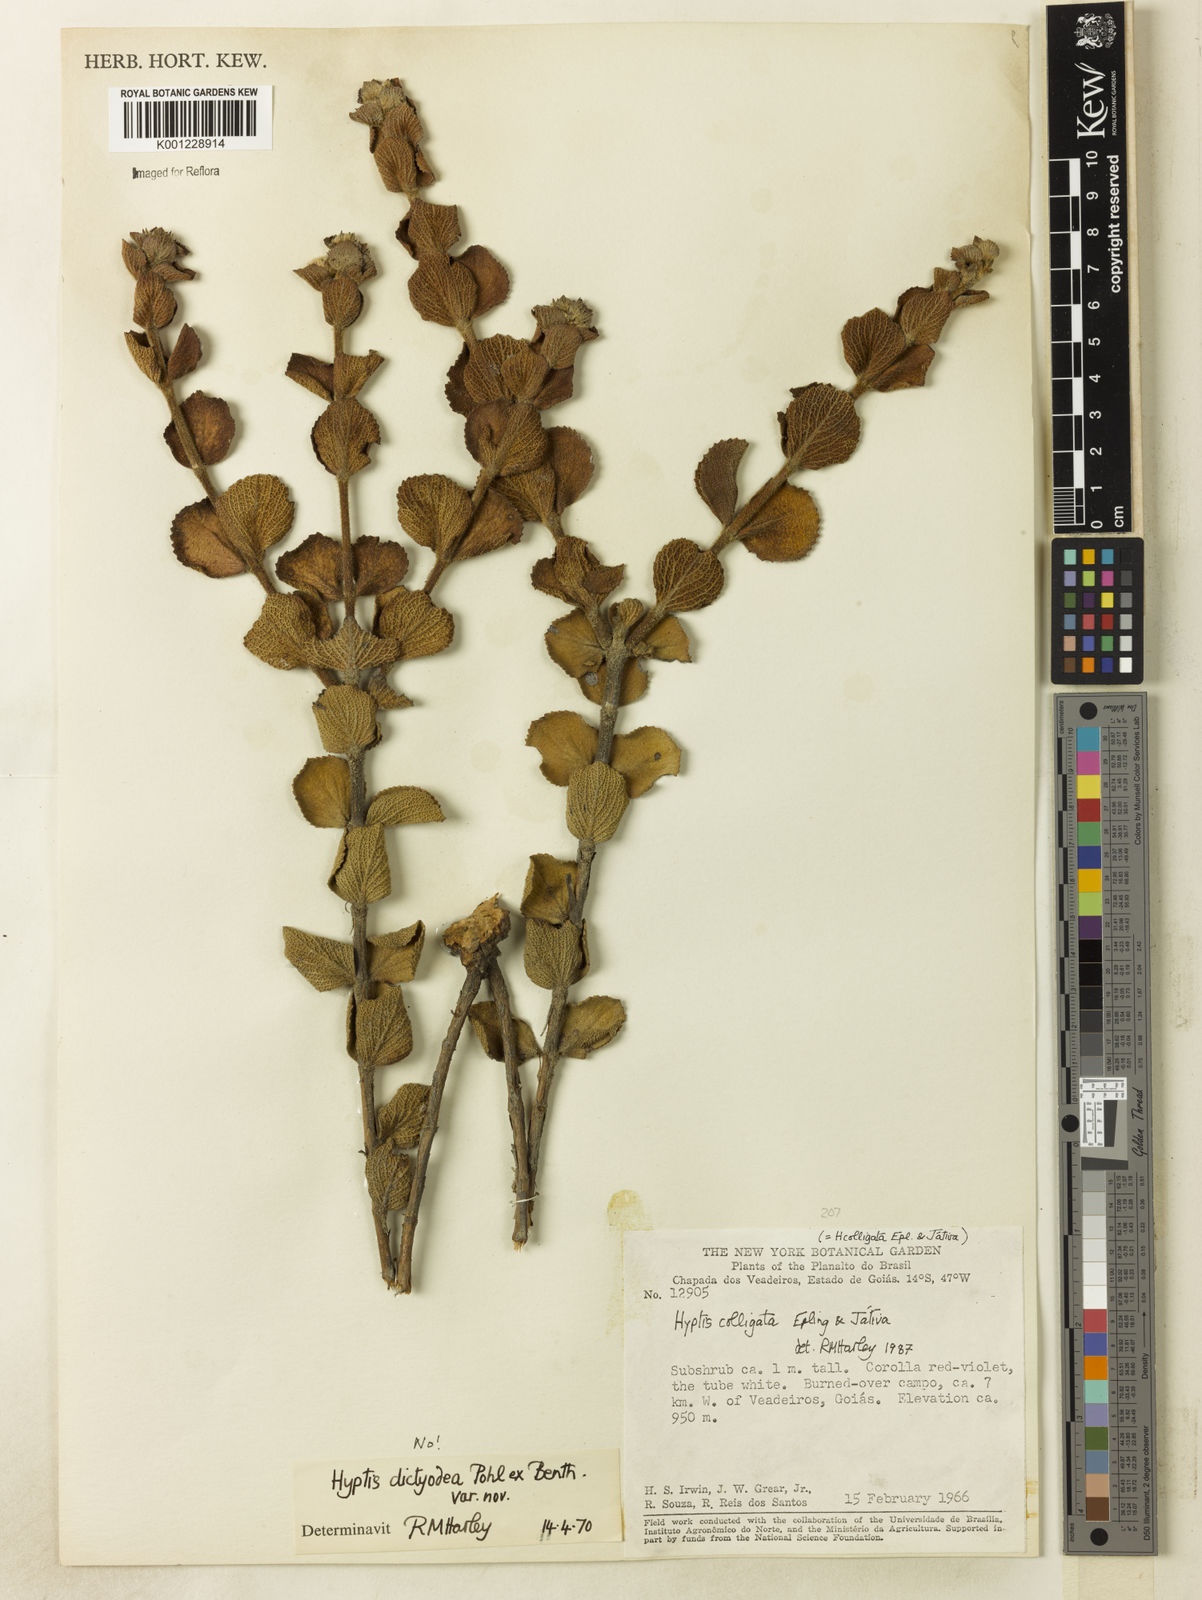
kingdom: Plantae
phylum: Tracheophyta
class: Magnoliopsida
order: Lamiales
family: Lamiaceae
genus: Hyptis
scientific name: Hyptis
